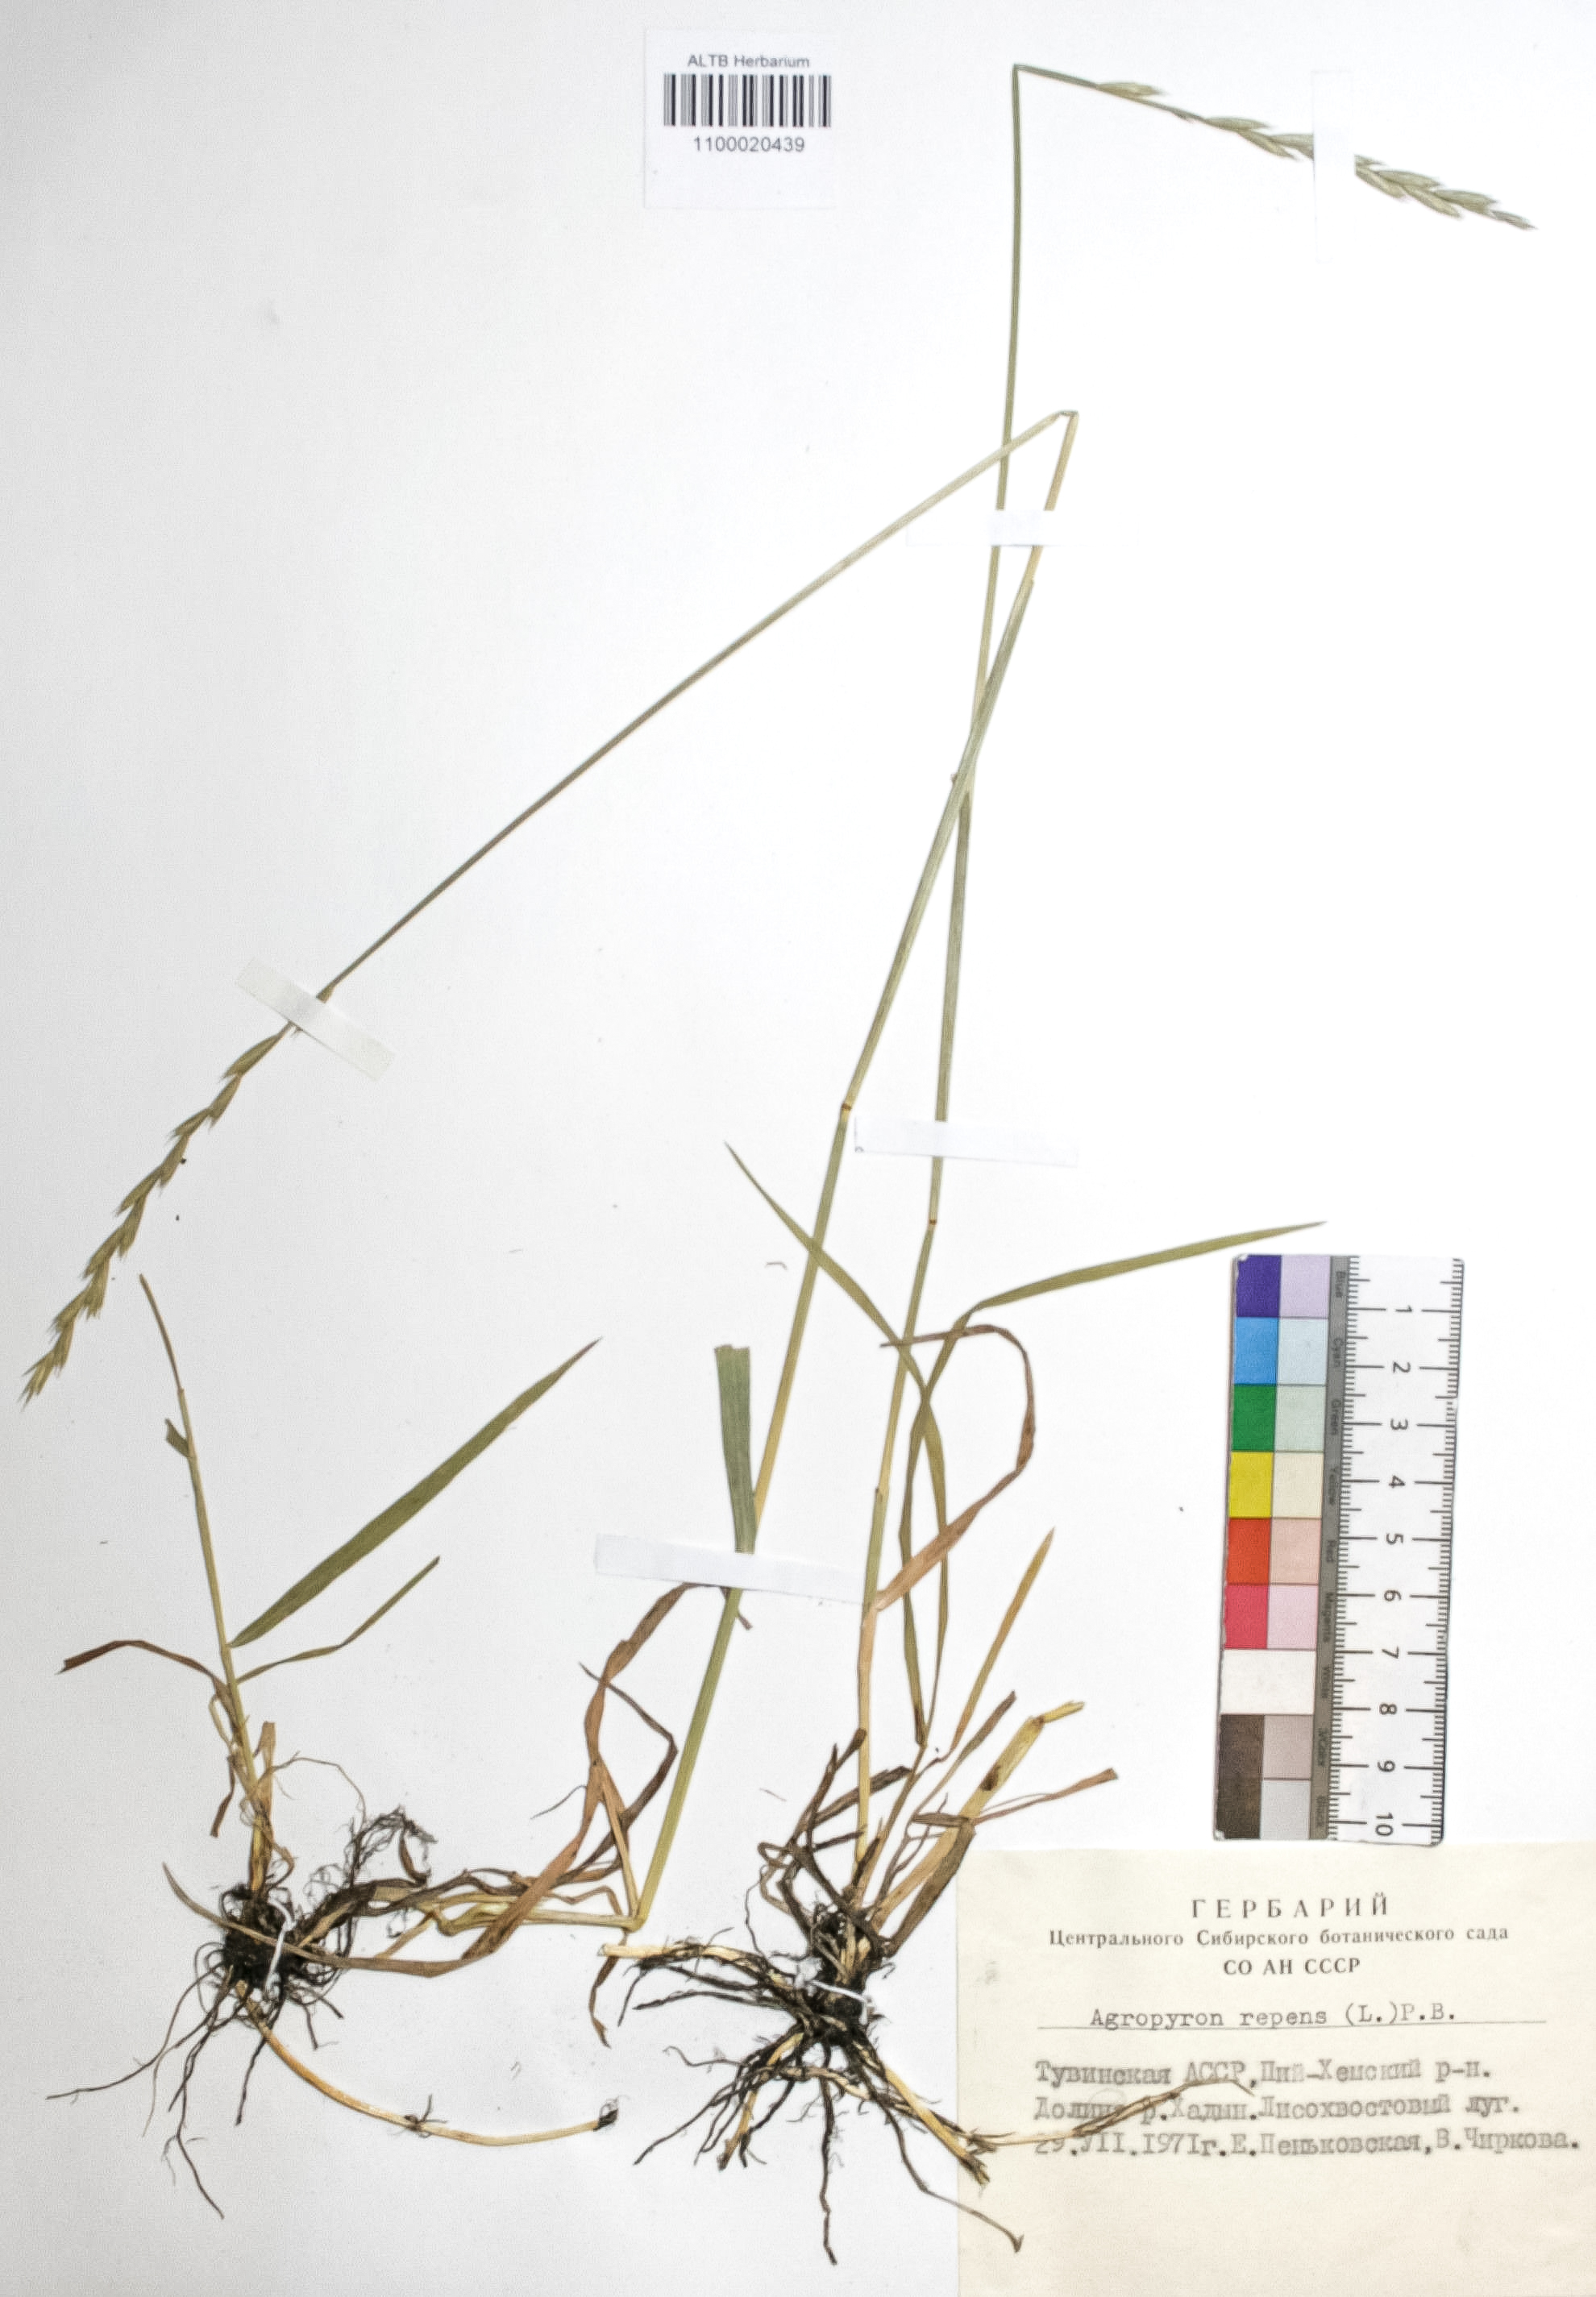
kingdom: Plantae
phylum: Tracheophyta
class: Liliopsida
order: Poales
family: Poaceae
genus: Elymus
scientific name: Elymus repens
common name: Quackgrass
